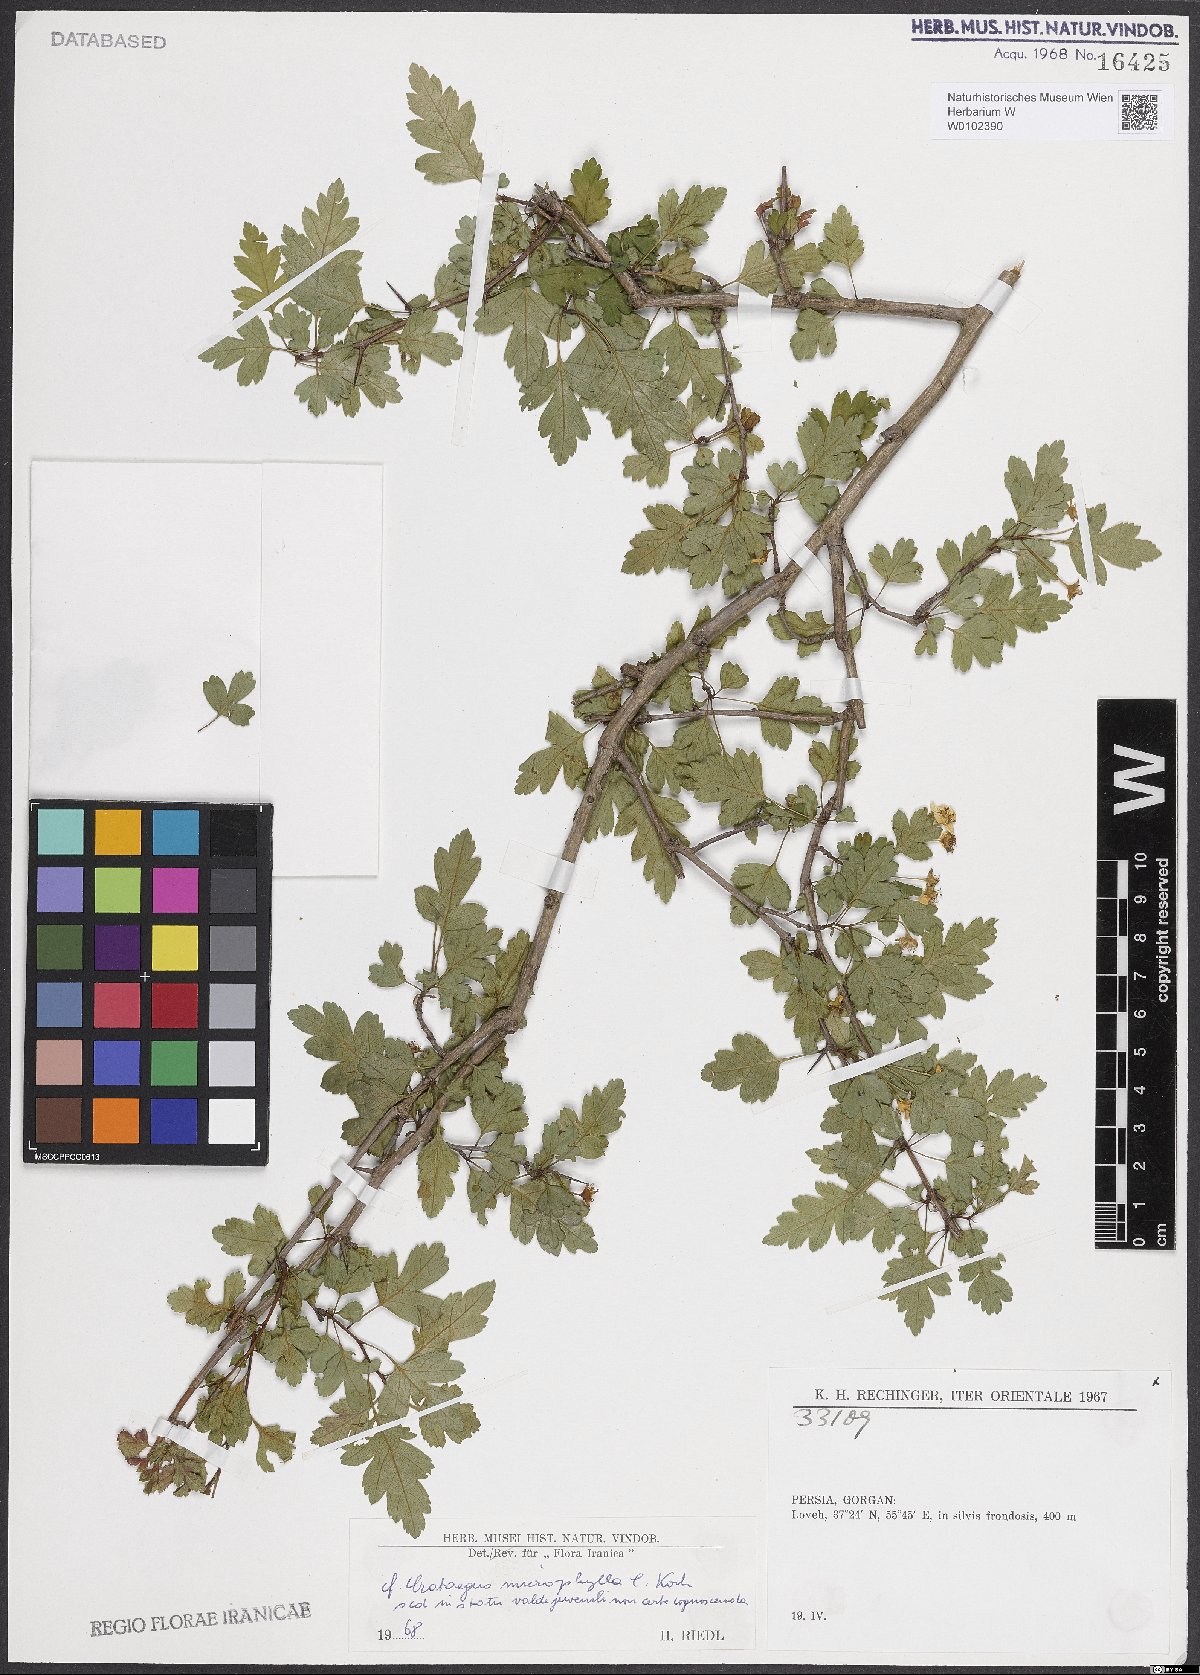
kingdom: Plantae
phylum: Tracheophyta
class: Magnoliopsida
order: Rosales
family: Rosaceae
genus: Crataegus
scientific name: Crataegus microphylla
